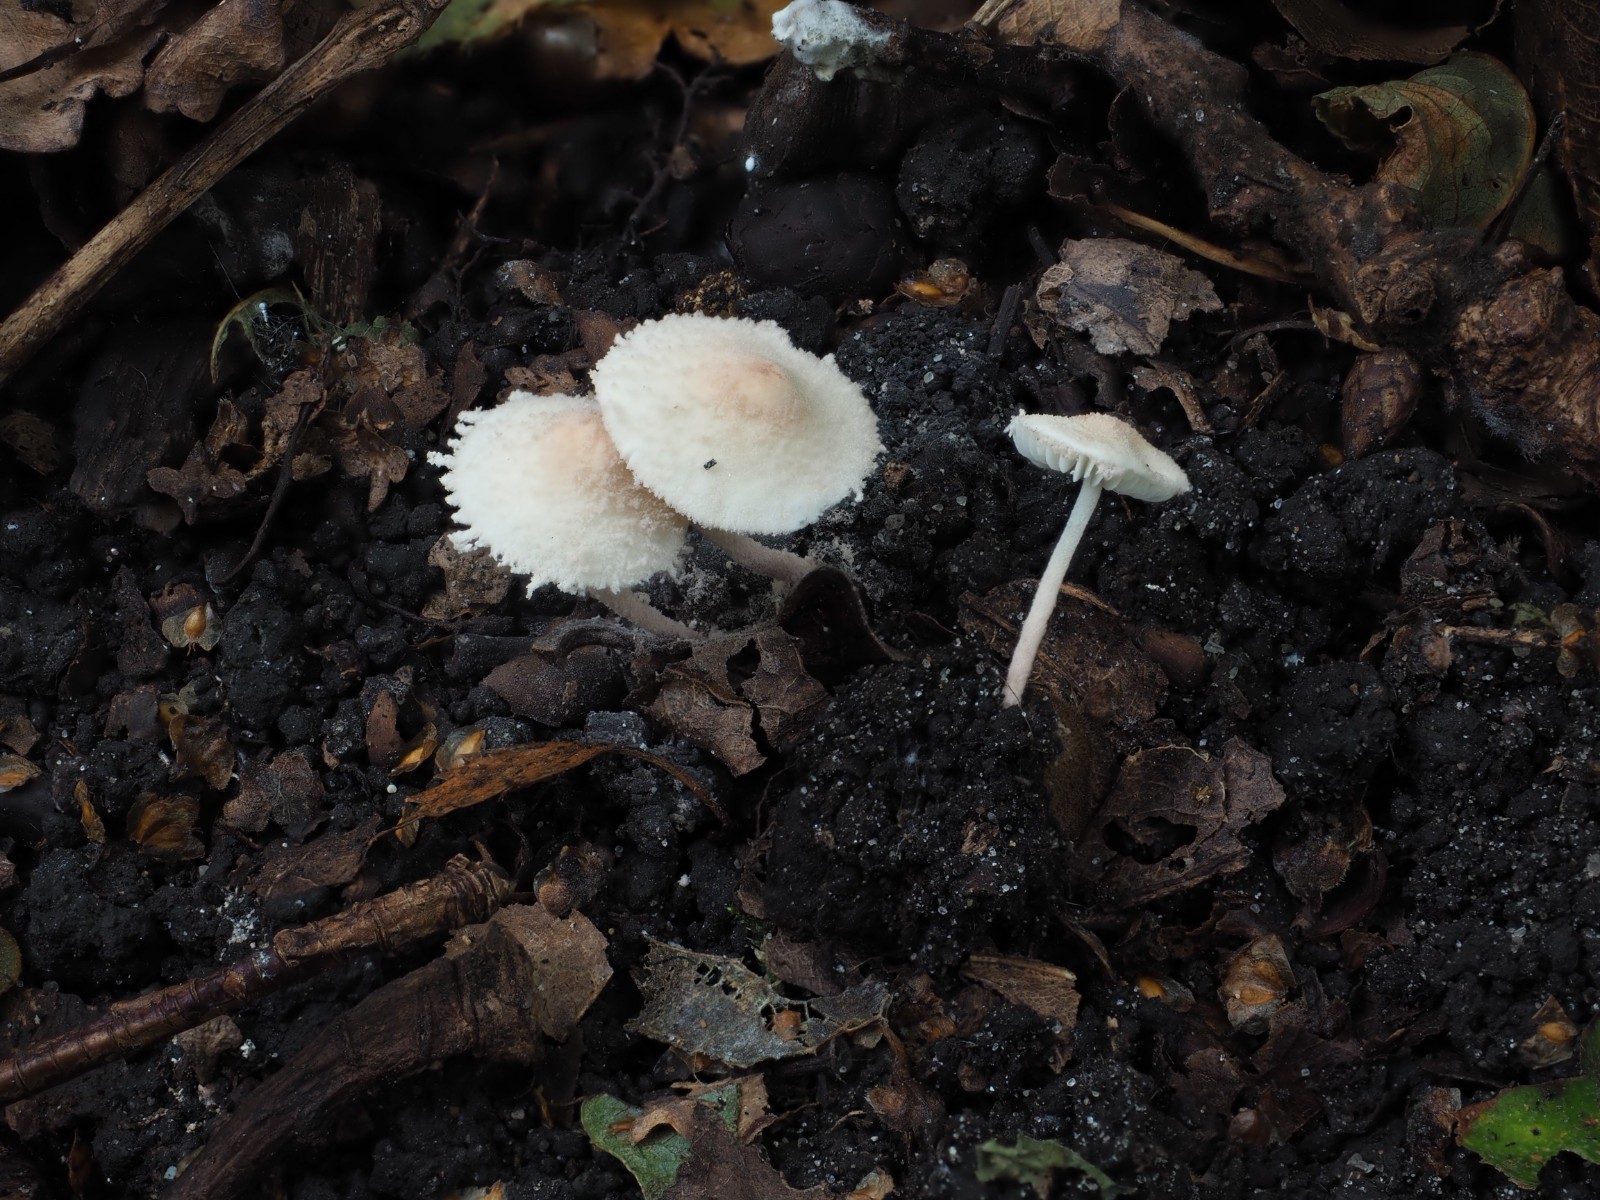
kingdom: Fungi
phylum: Basidiomycota
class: Agaricomycetes
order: Agaricales
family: Agaricaceae
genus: Cystolepiota
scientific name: Cystolepiota seminuda
